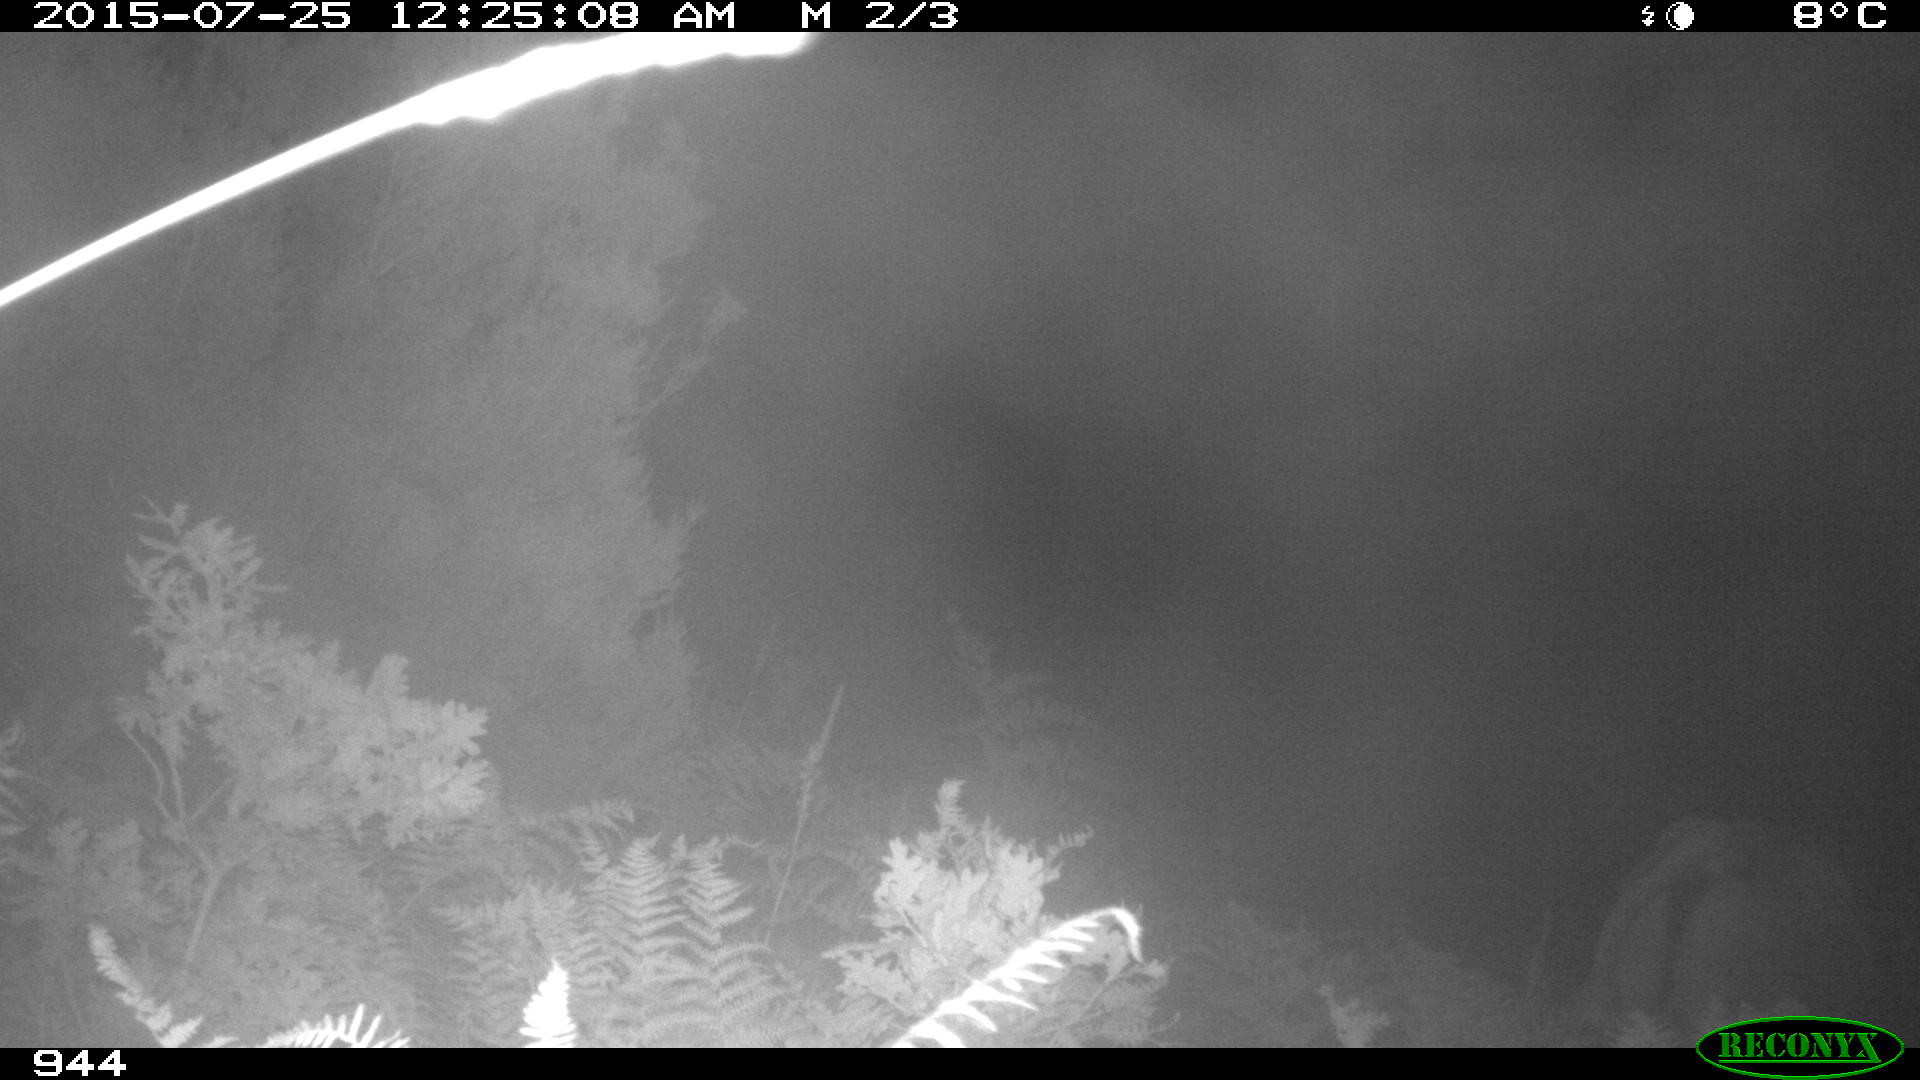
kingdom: Animalia
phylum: Chordata
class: Mammalia
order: Artiodactyla
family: Bovidae
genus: Bos
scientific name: Bos taurus
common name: Domesticated cattle
